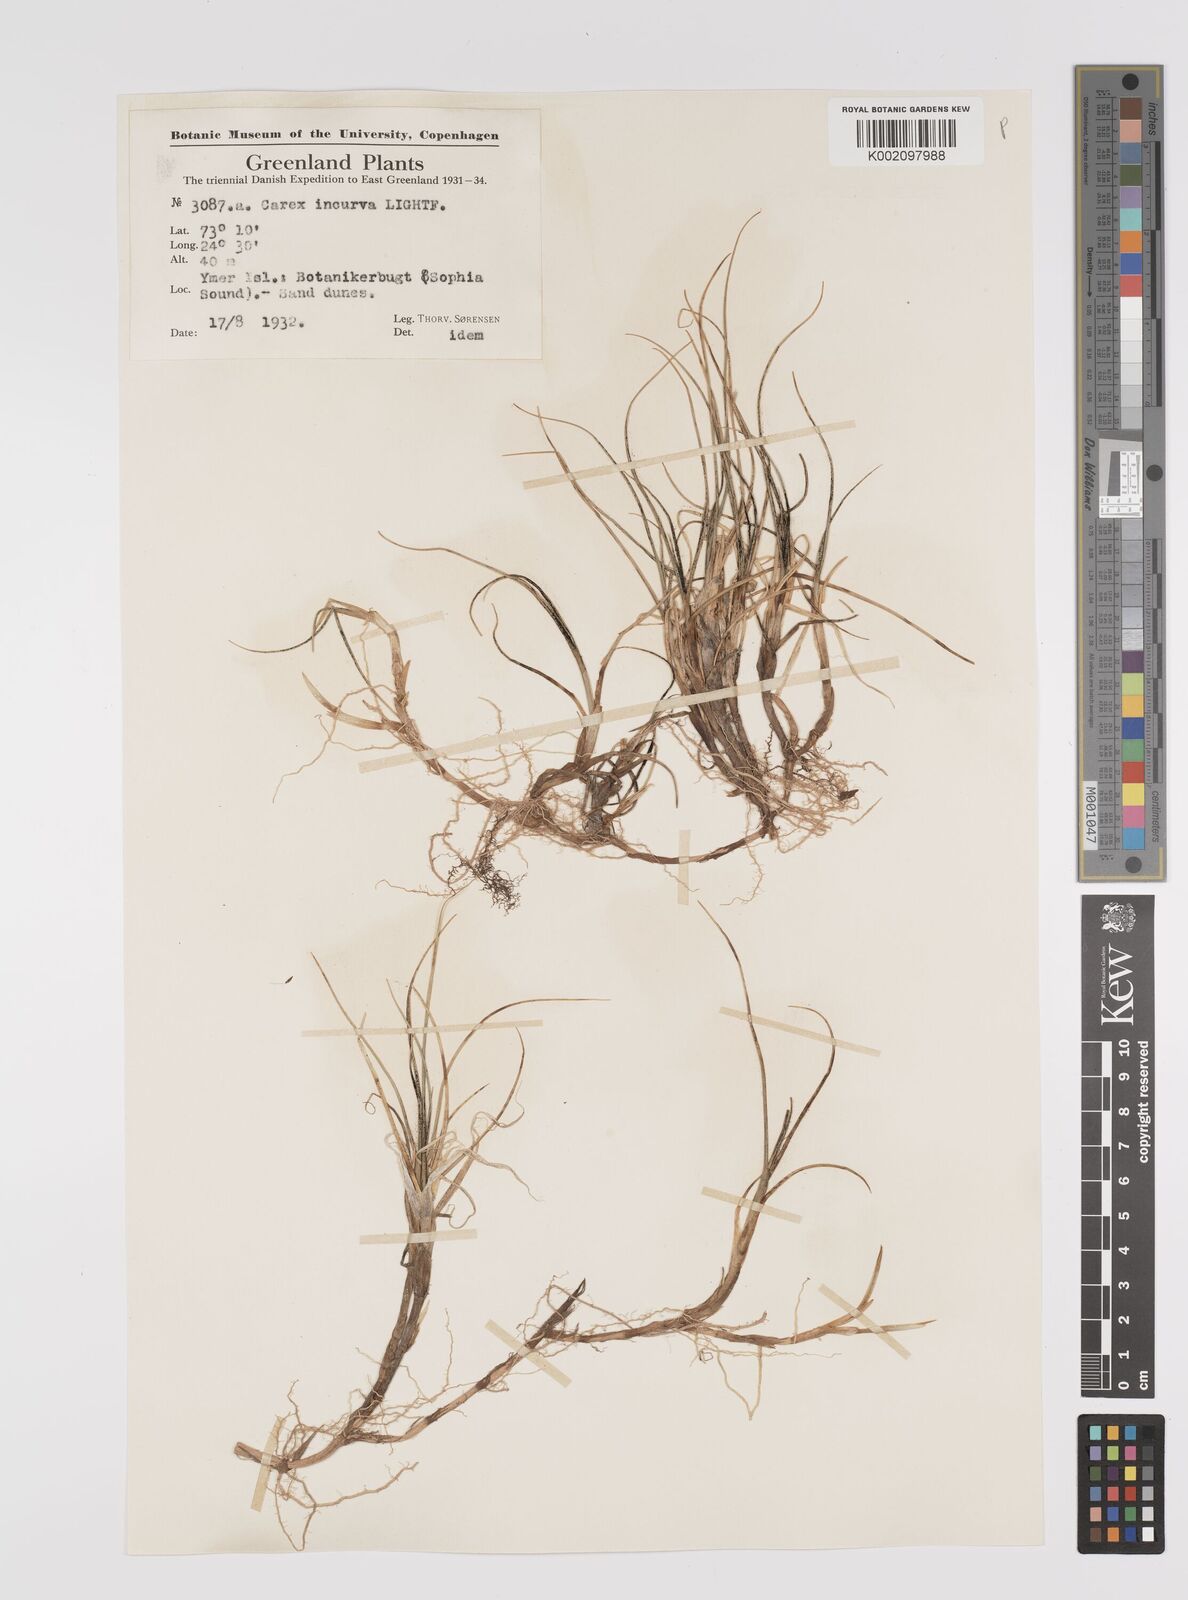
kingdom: Plantae
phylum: Tracheophyta
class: Liliopsida
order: Poales
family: Cyperaceae
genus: Carex
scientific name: Carex maritima
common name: Curved sedge
